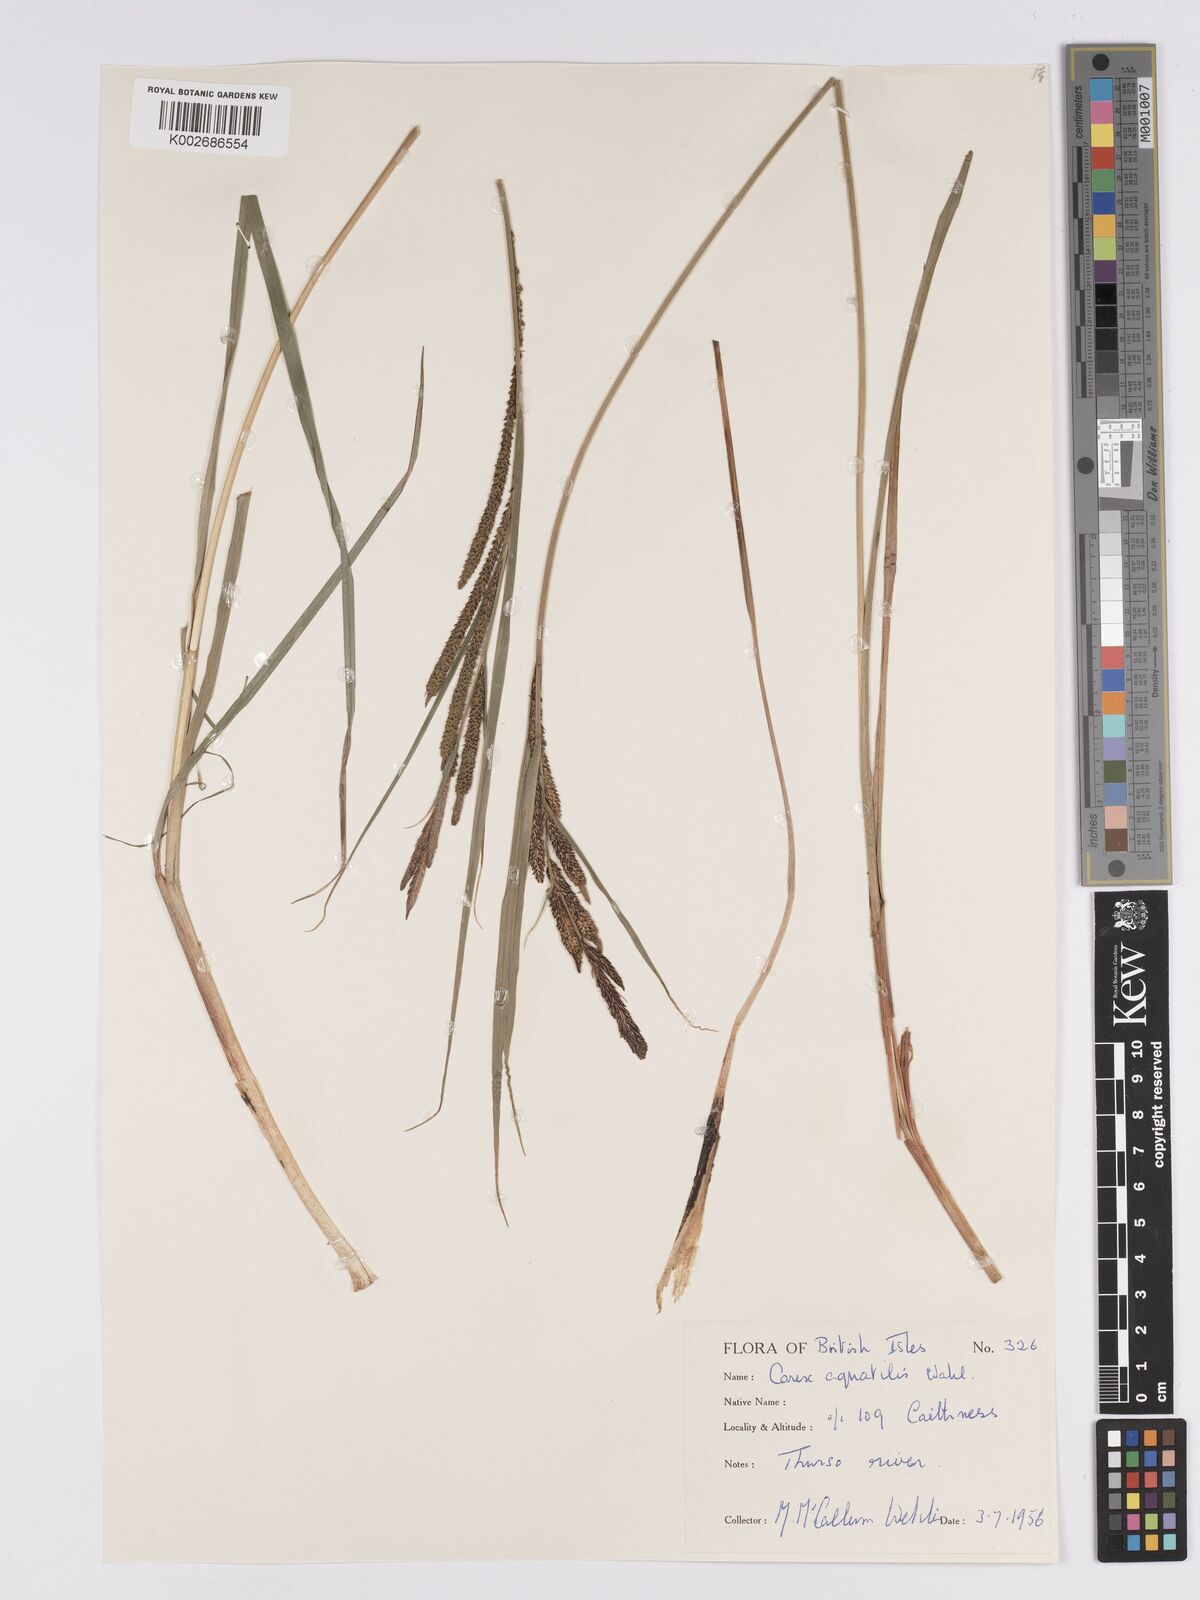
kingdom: Plantae
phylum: Tracheophyta
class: Liliopsida
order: Poales
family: Cyperaceae
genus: Carex
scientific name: Carex aquatilis
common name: Water sedge
